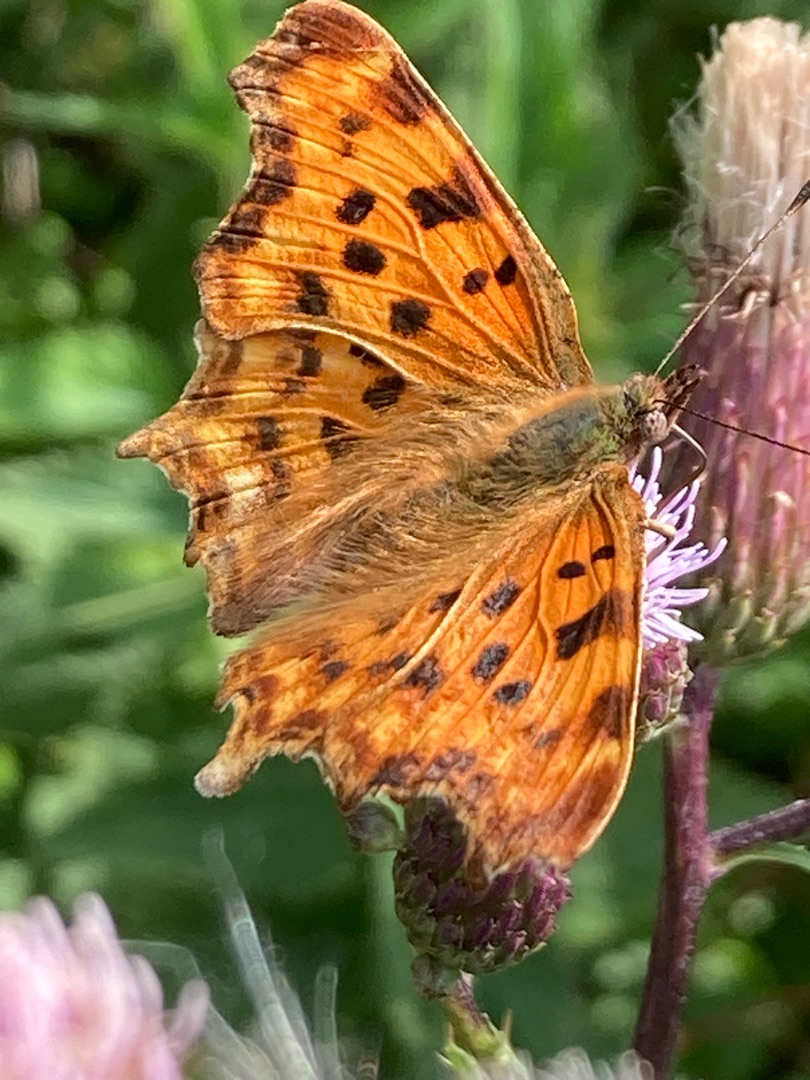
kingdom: Animalia
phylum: Arthropoda
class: Insecta
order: Lepidoptera
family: Nymphalidae
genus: Polygonia
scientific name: Polygonia c-album
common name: Det hvide C
